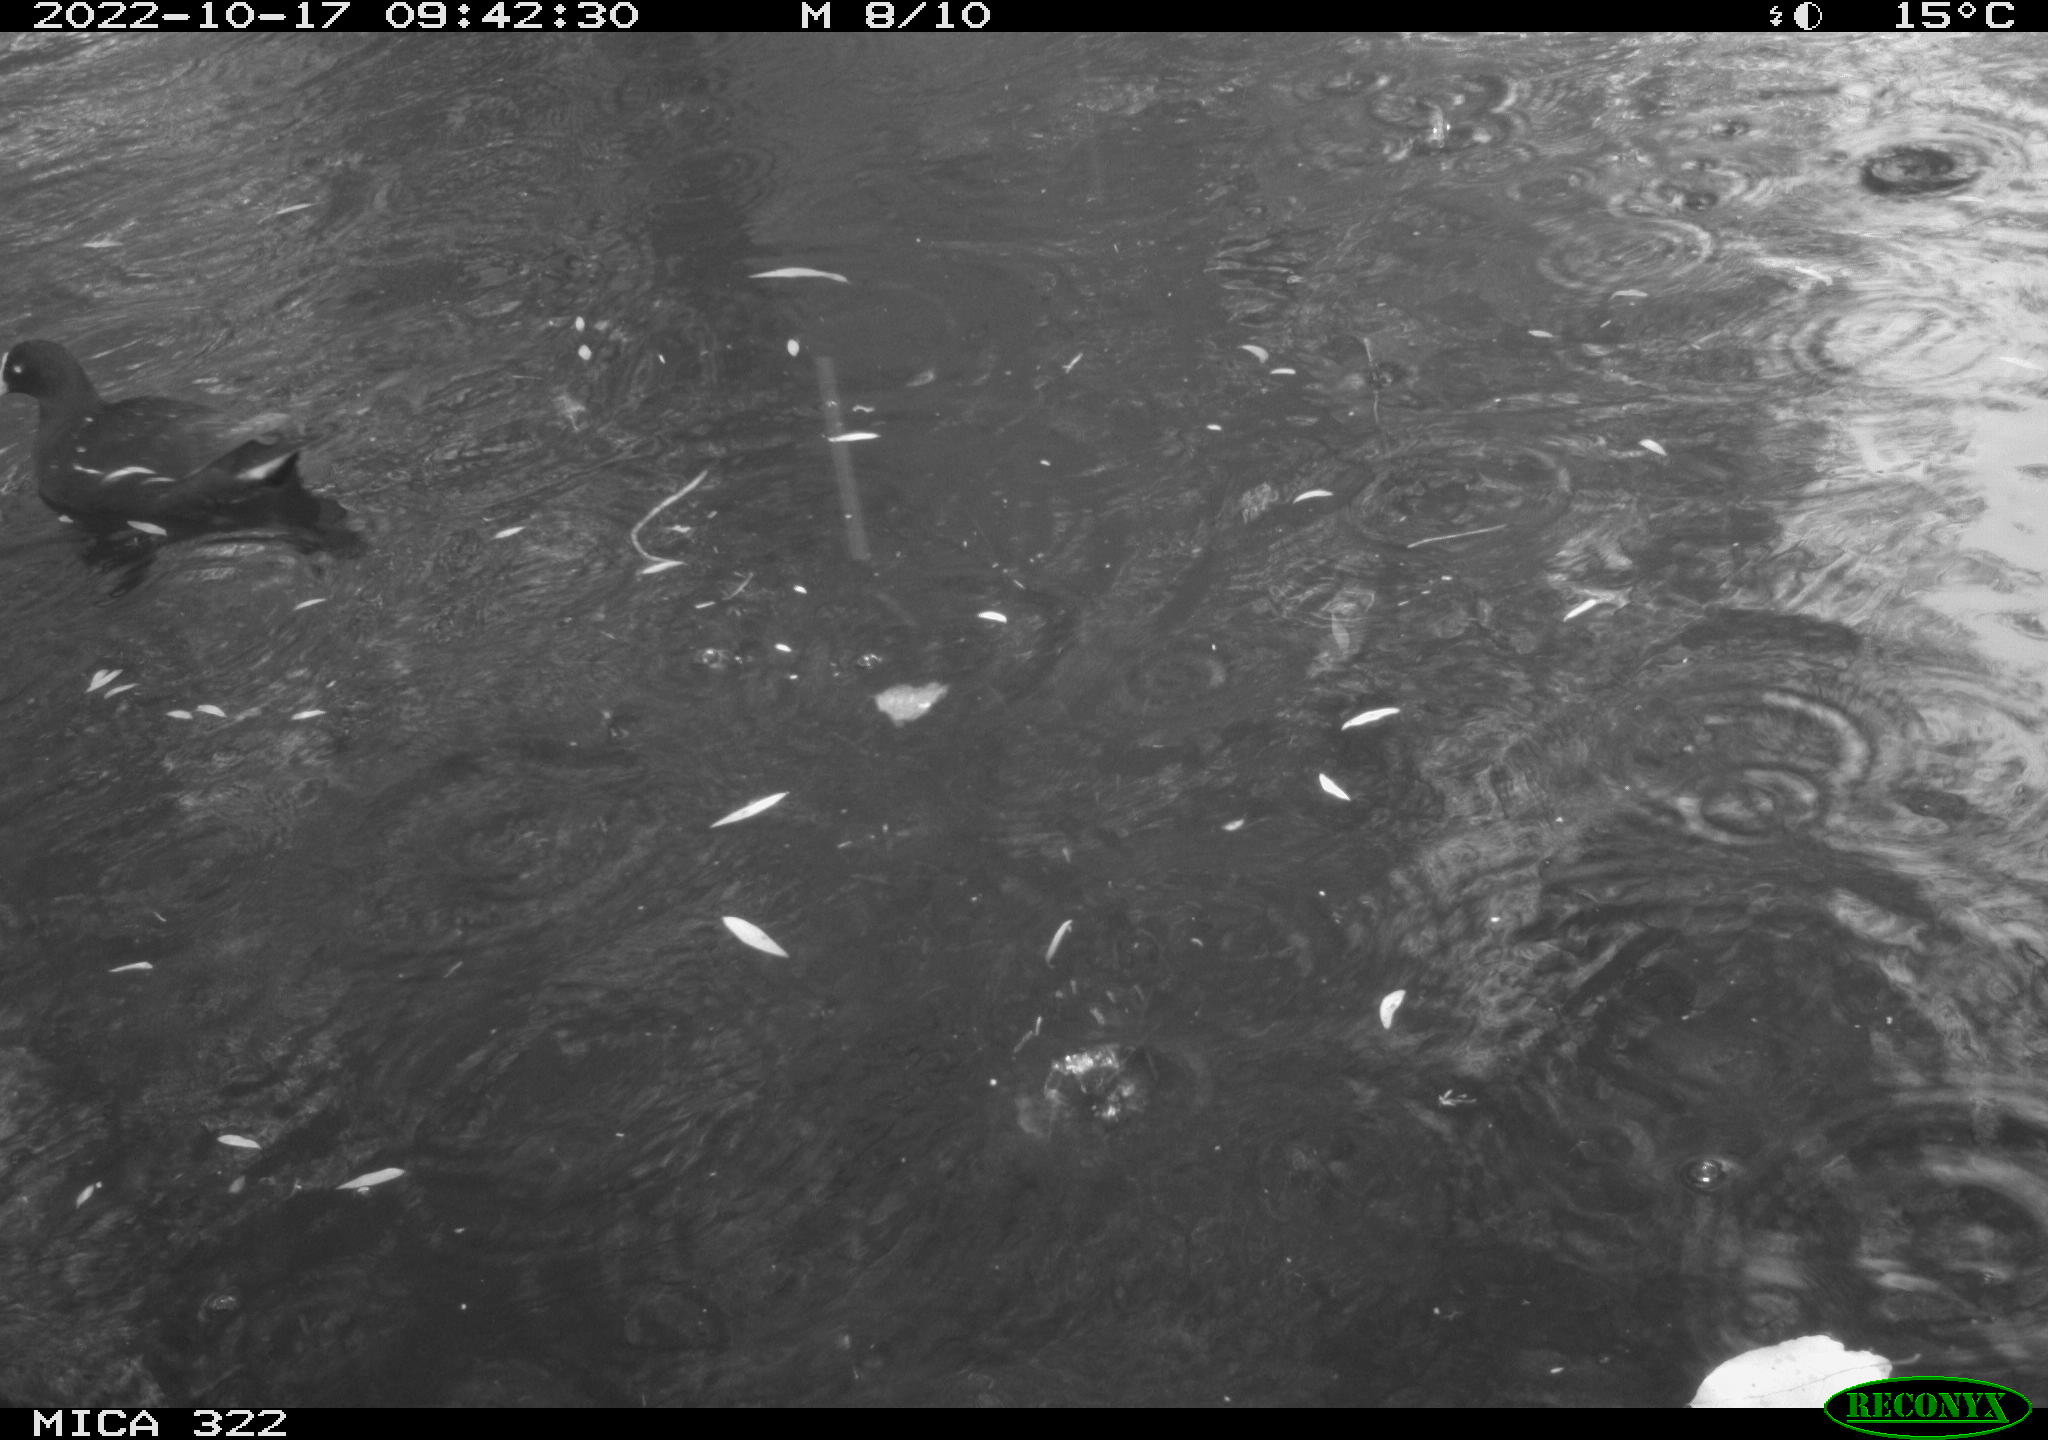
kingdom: Animalia
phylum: Chordata
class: Aves
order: Gruiformes
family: Rallidae
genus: Gallinula
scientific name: Gallinula chloropus
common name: Common moorhen
